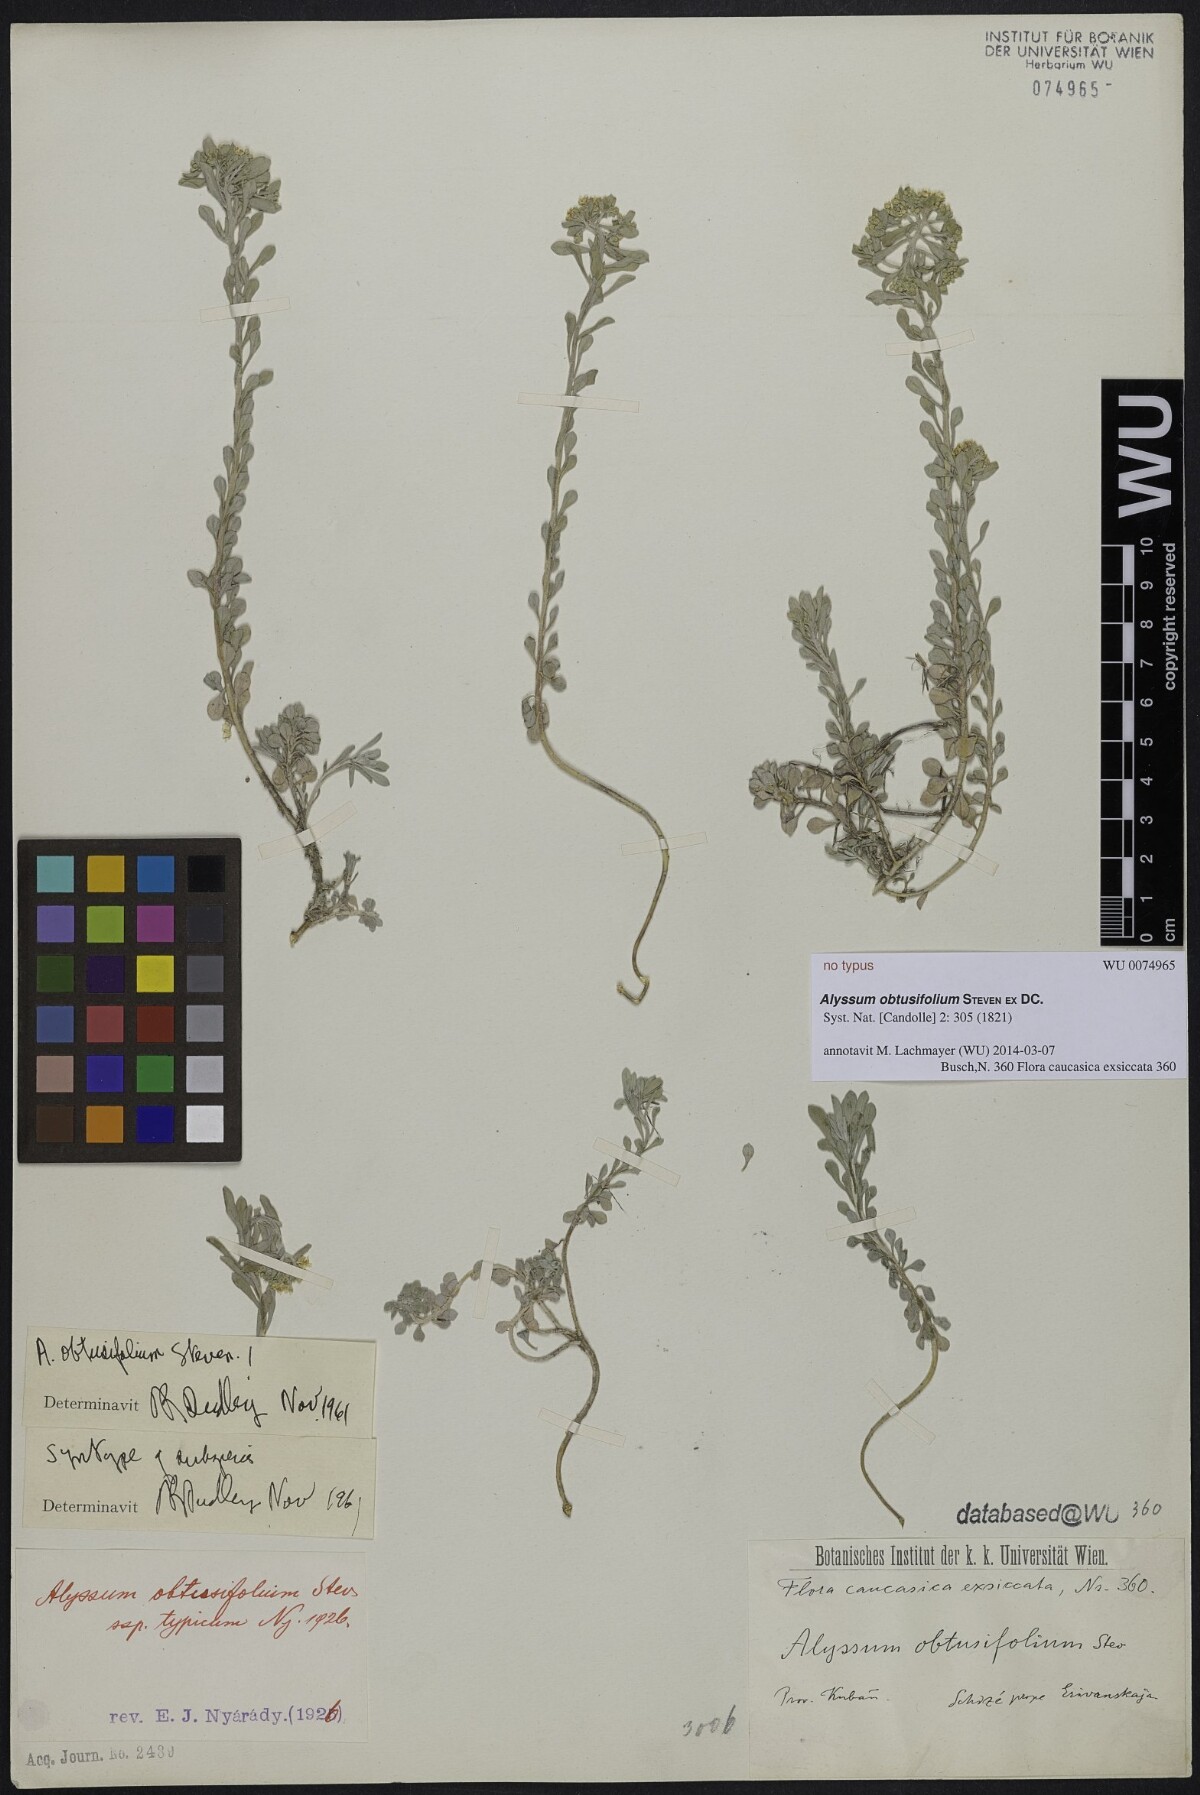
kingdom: Plantae
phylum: Tracheophyta
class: Magnoliopsida
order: Brassicales
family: Brassicaceae
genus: Odontarrhena
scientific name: Odontarrhena obtusifolia
